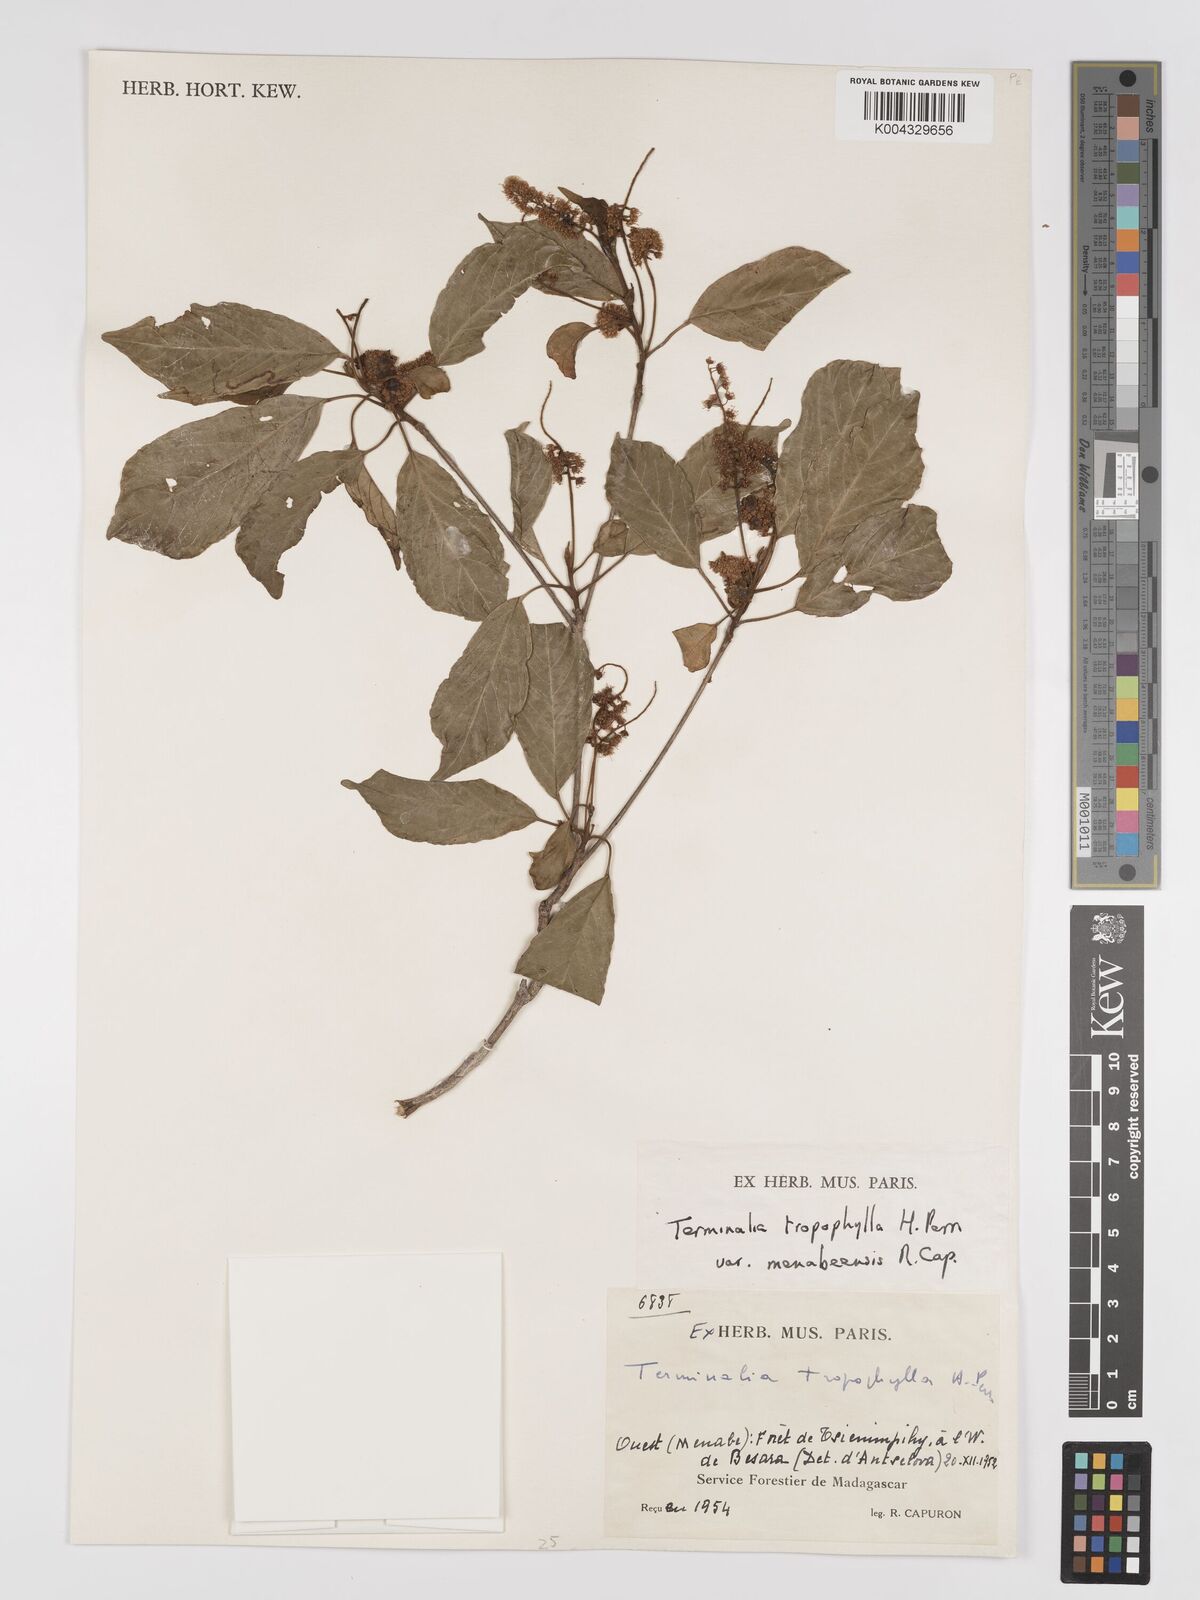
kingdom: Plantae
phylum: Tracheophyta
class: Magnoliopsida
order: Myrtales
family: Combretaceae
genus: Terminalia
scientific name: Terminalia tropophylla
